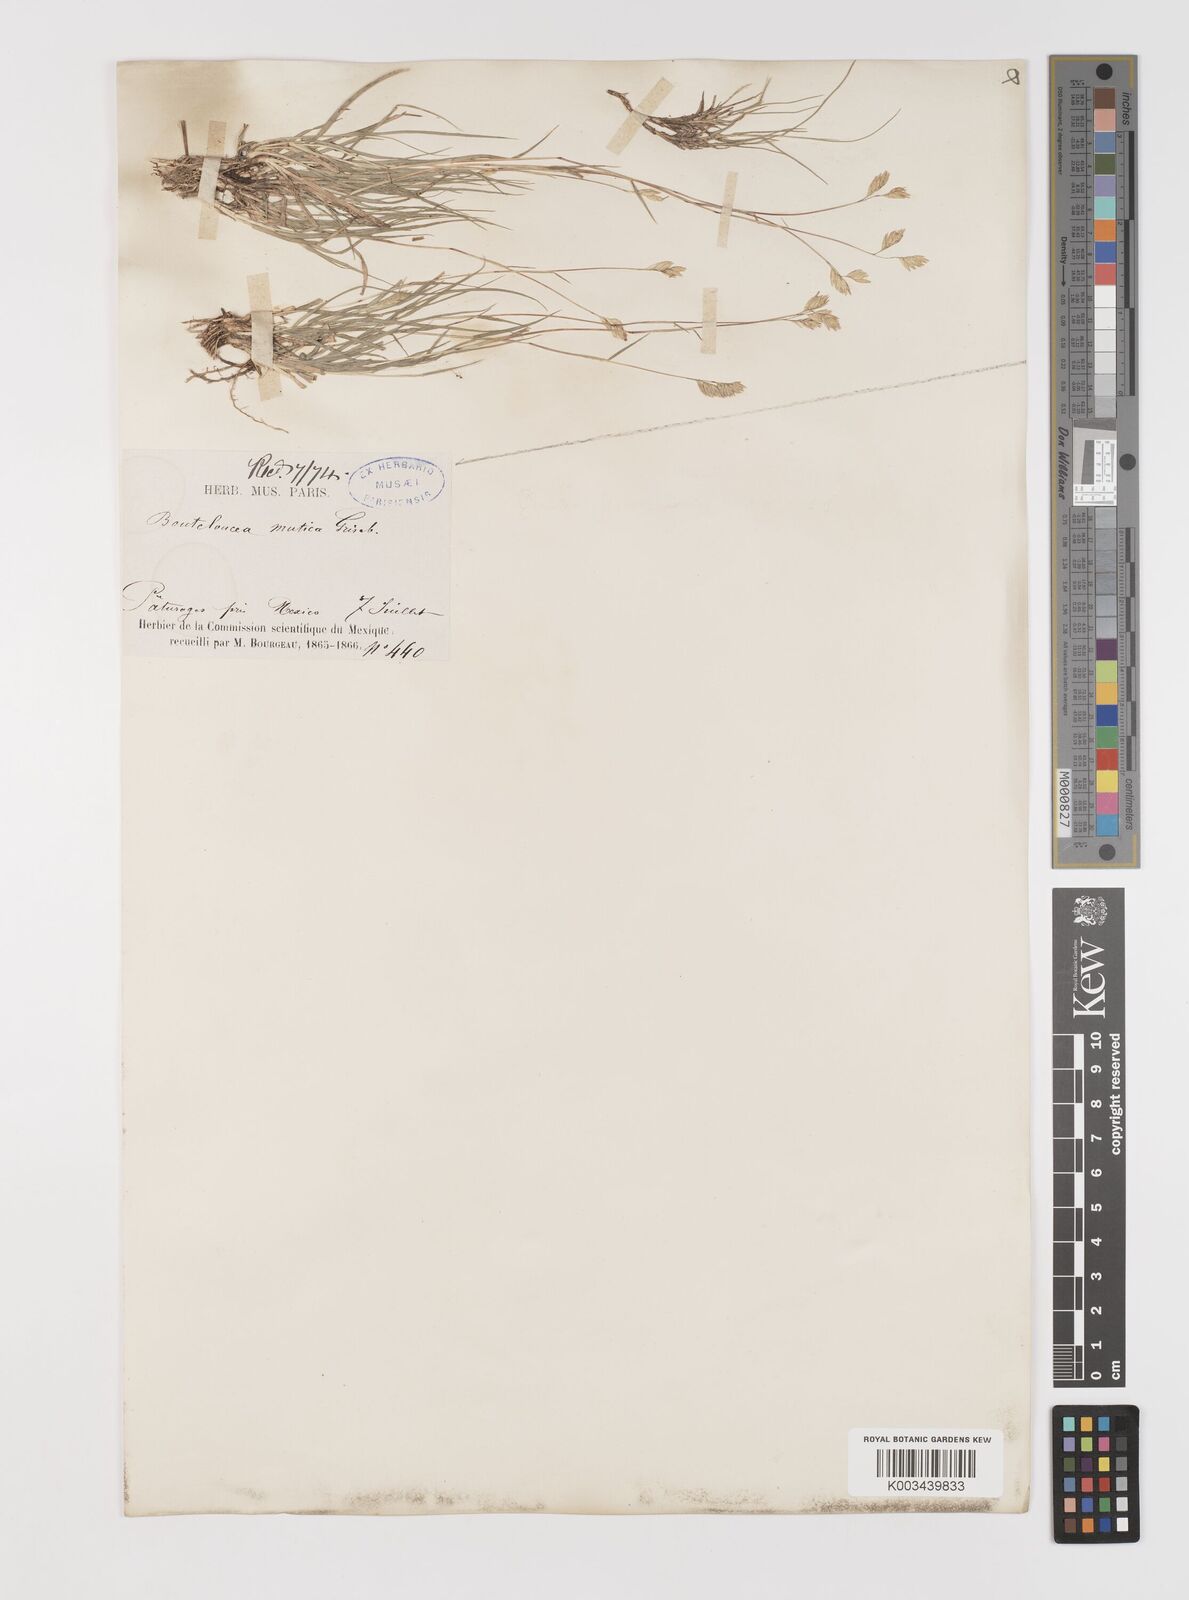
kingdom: Plantae
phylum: Tracheophyta
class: Liliopsida
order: Poales
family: Poaceae
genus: Bouteloua
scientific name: Bouteloua dactyloides
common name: Buffalo grass
